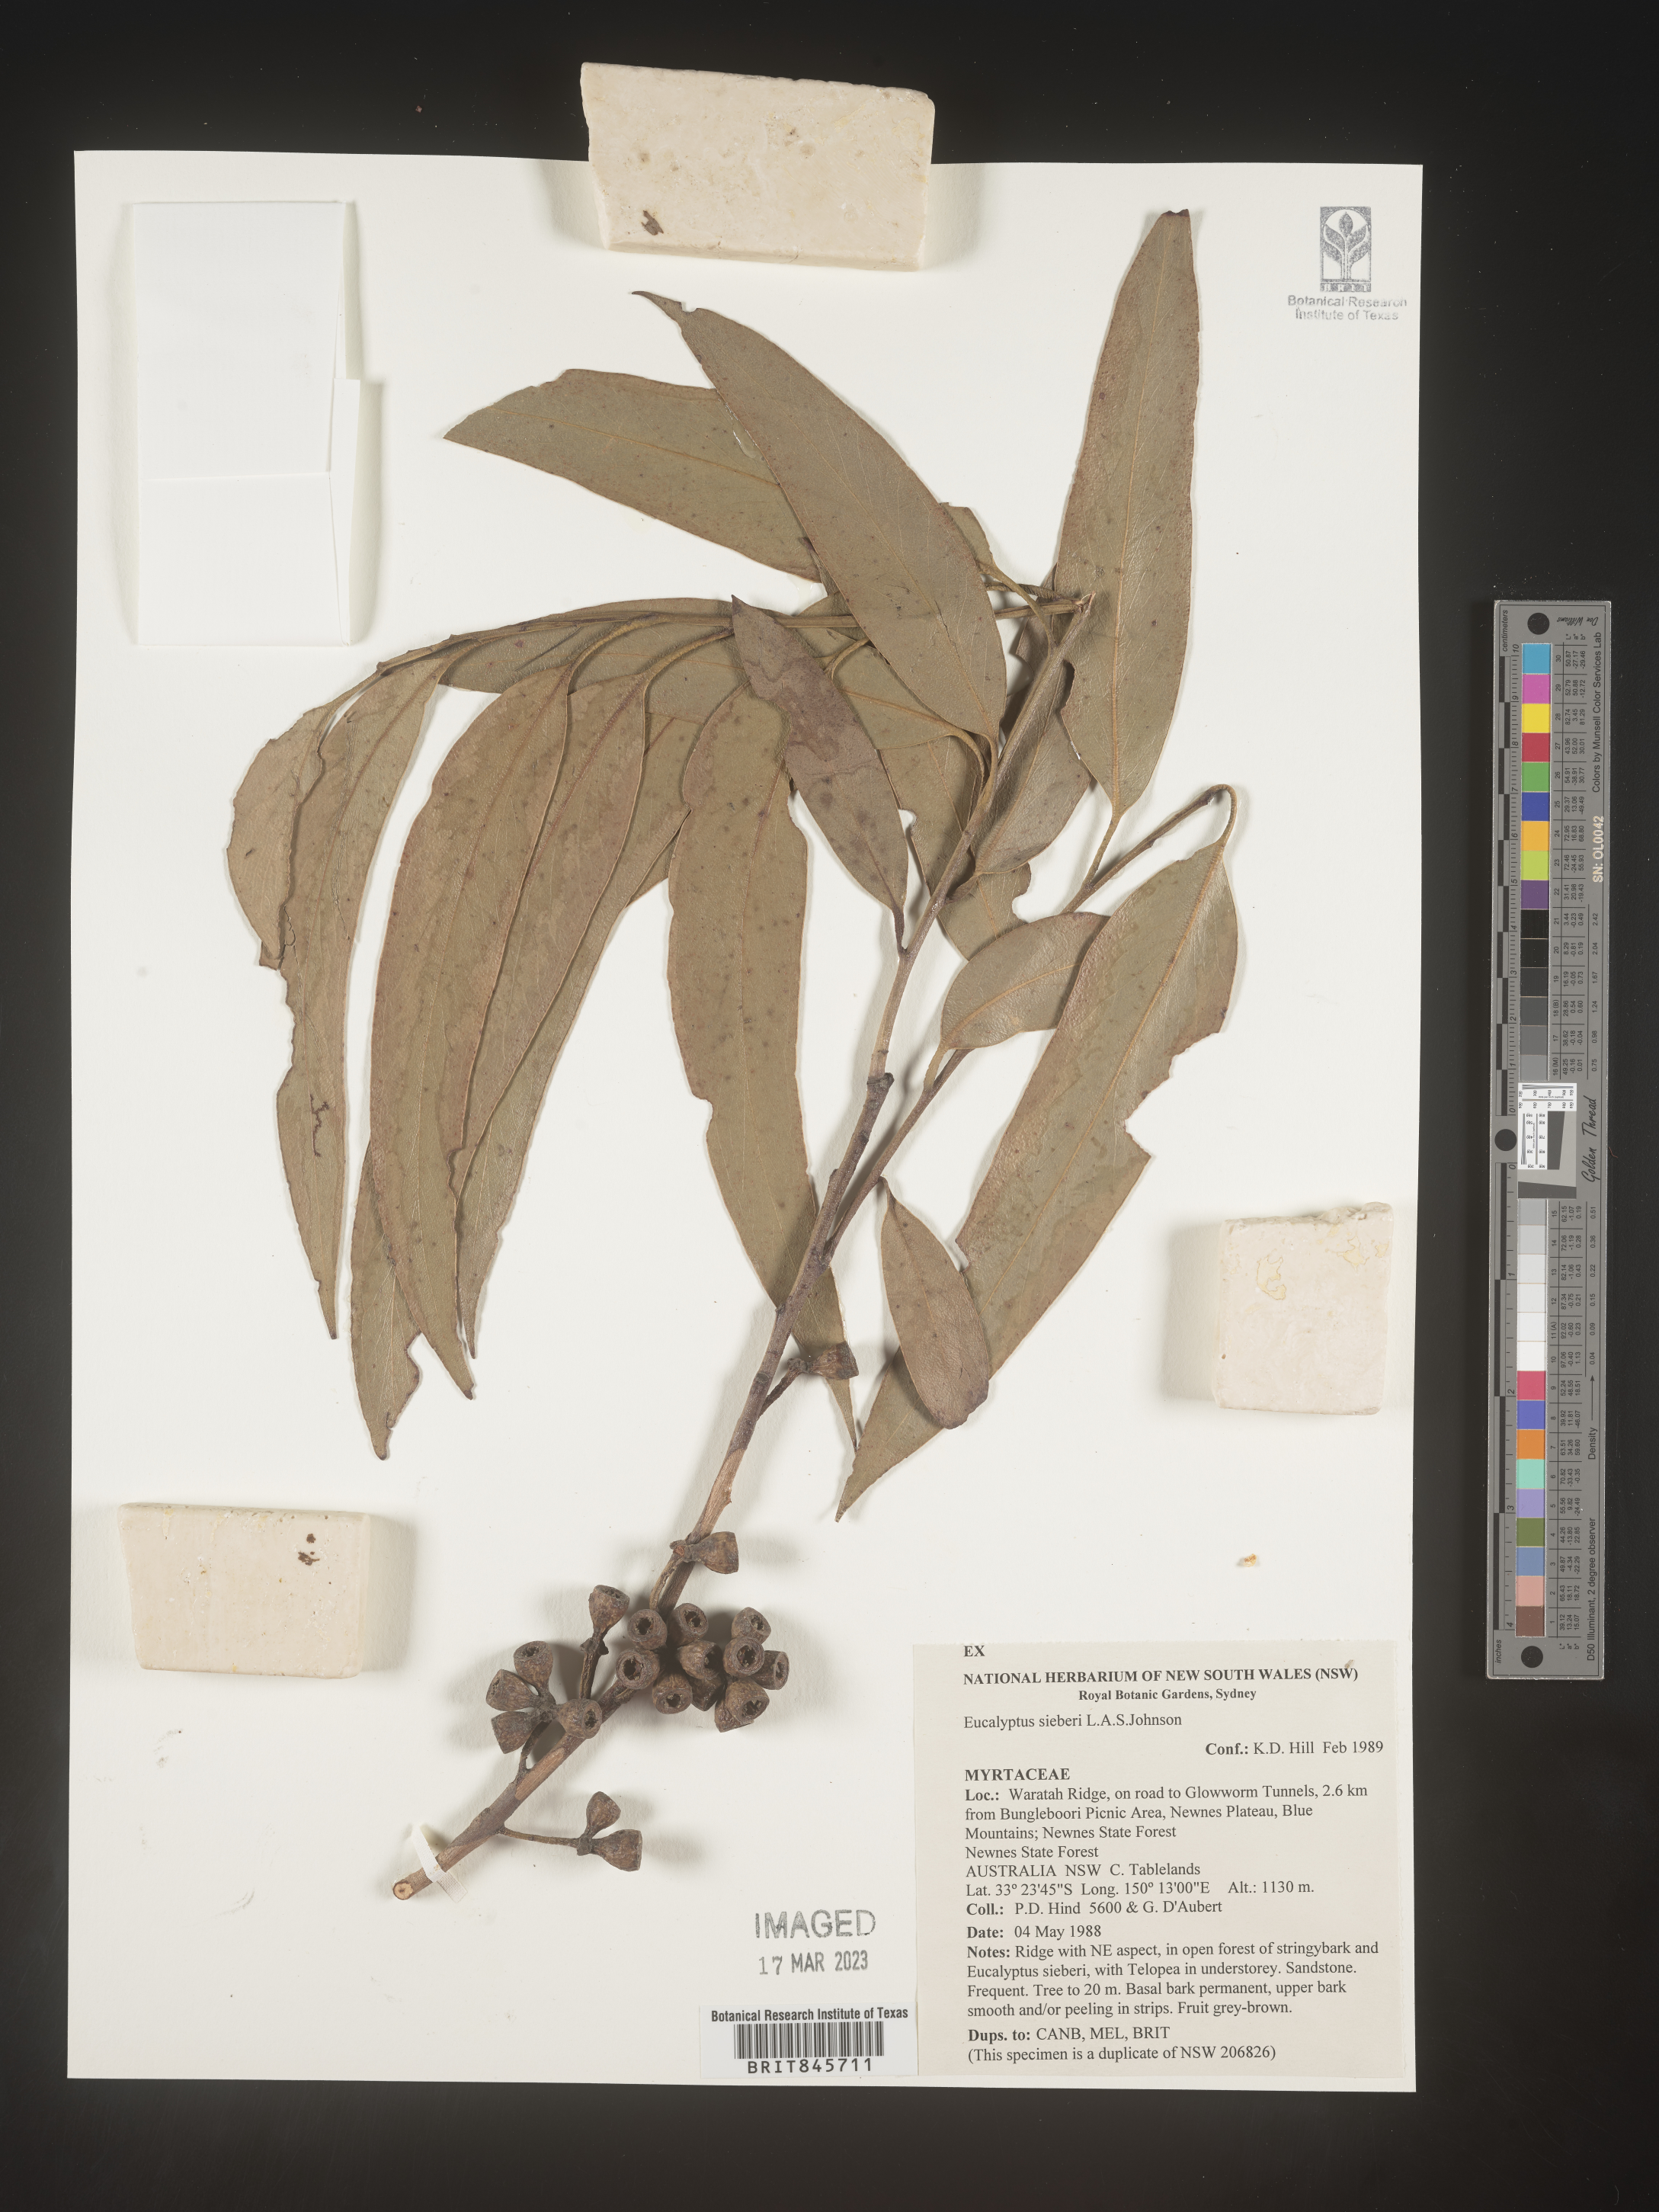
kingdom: Plantae
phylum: Tracheophyta
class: Magnoliopsida
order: Myrtales
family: Myrtaceae
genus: Eucalyptus
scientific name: Eucalyptus
